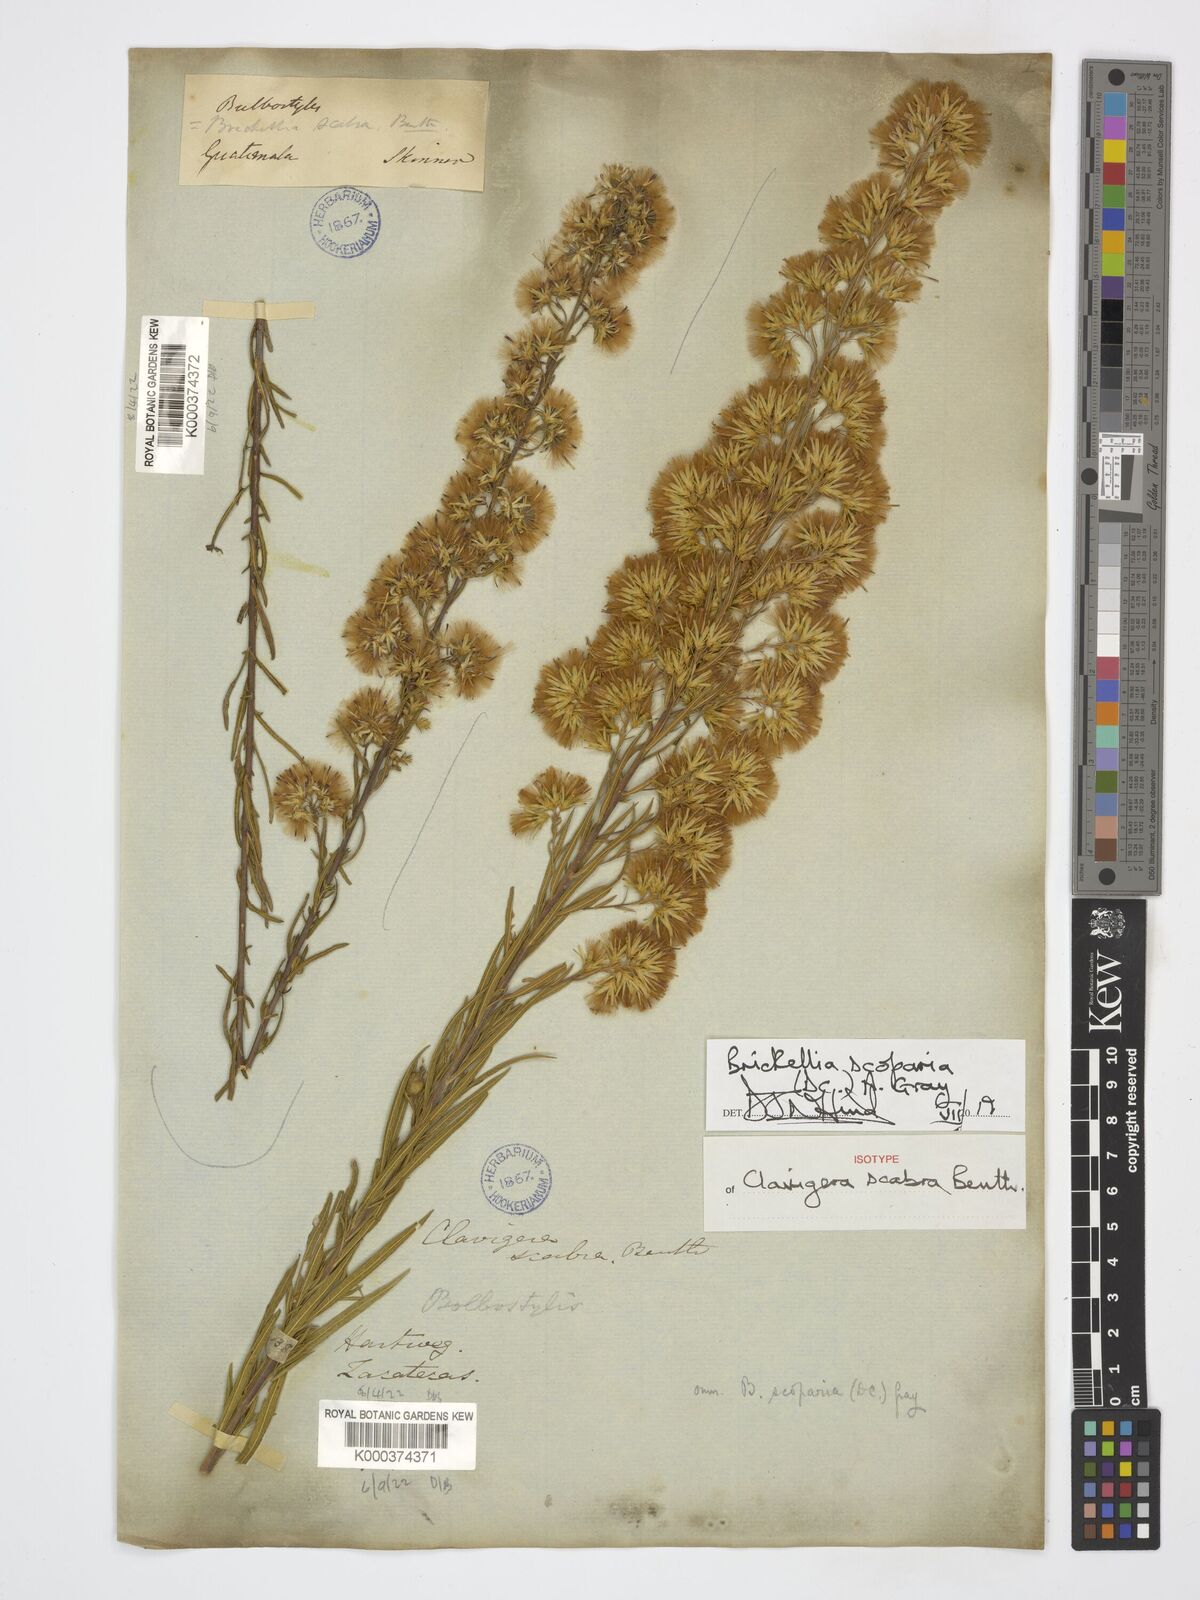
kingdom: Plantae
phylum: Tracheophyta
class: Magnoliopsida
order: Asterales
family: Asteraceae
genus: Brickellia
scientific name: Brickellia scoparia
